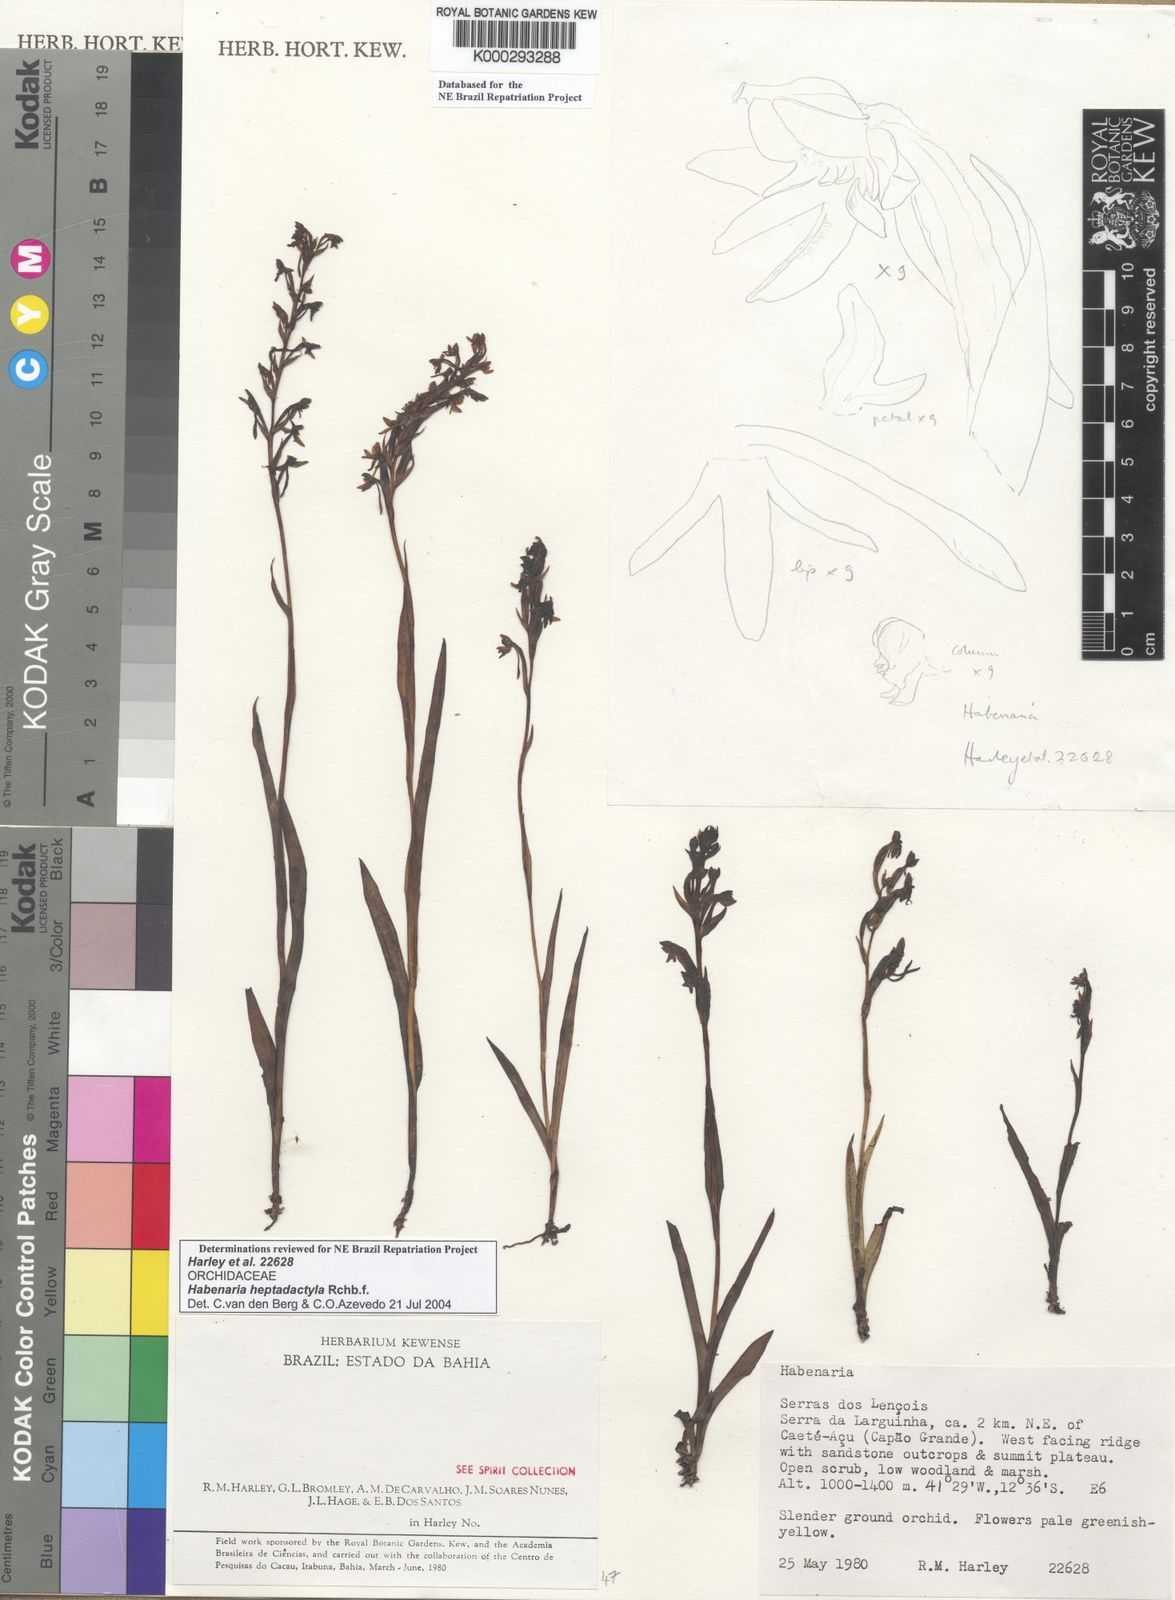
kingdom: Plantae
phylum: Tracheophyta
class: Liliopsida
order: Asparagales
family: Orchidaceae
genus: Habenaria
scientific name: Habenaria heptadactyla
